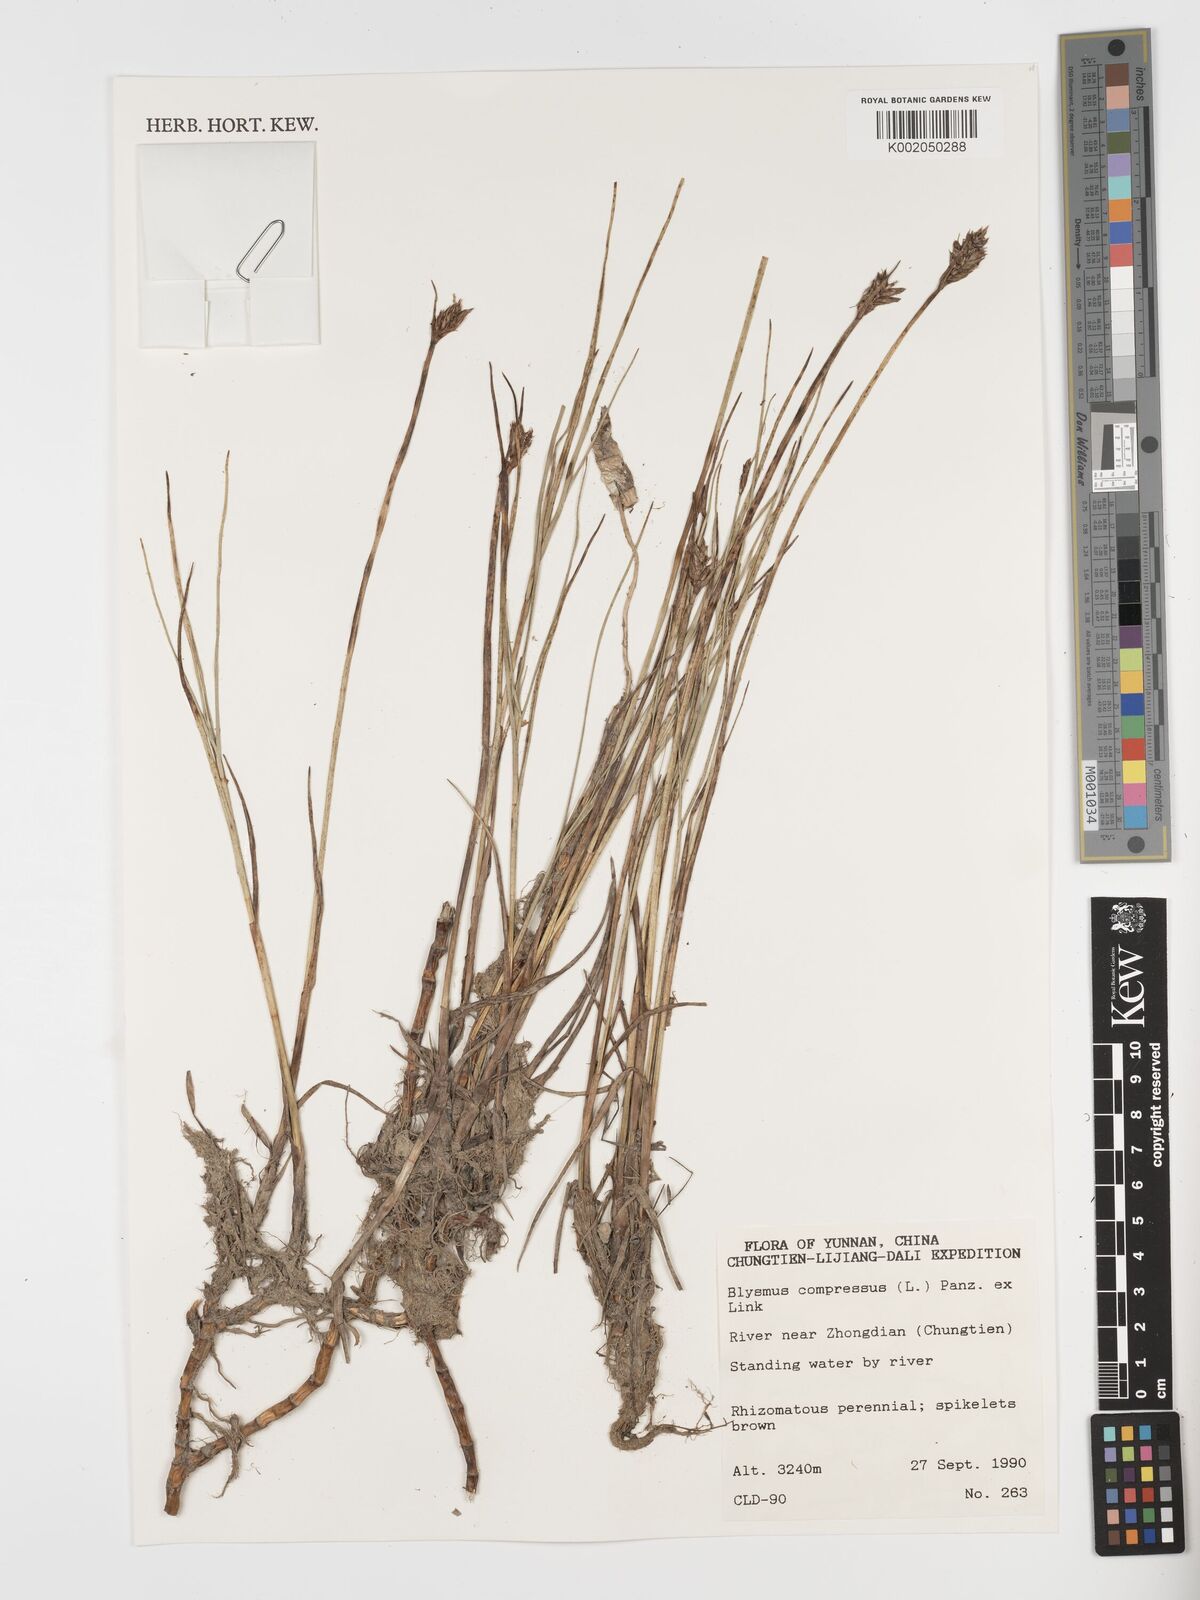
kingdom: Plantae
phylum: Tracheophyta
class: Liliopsida
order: Poales
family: Cyperaceae
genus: Blysmus
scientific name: Blysmus compressus
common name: Flat-sedge
